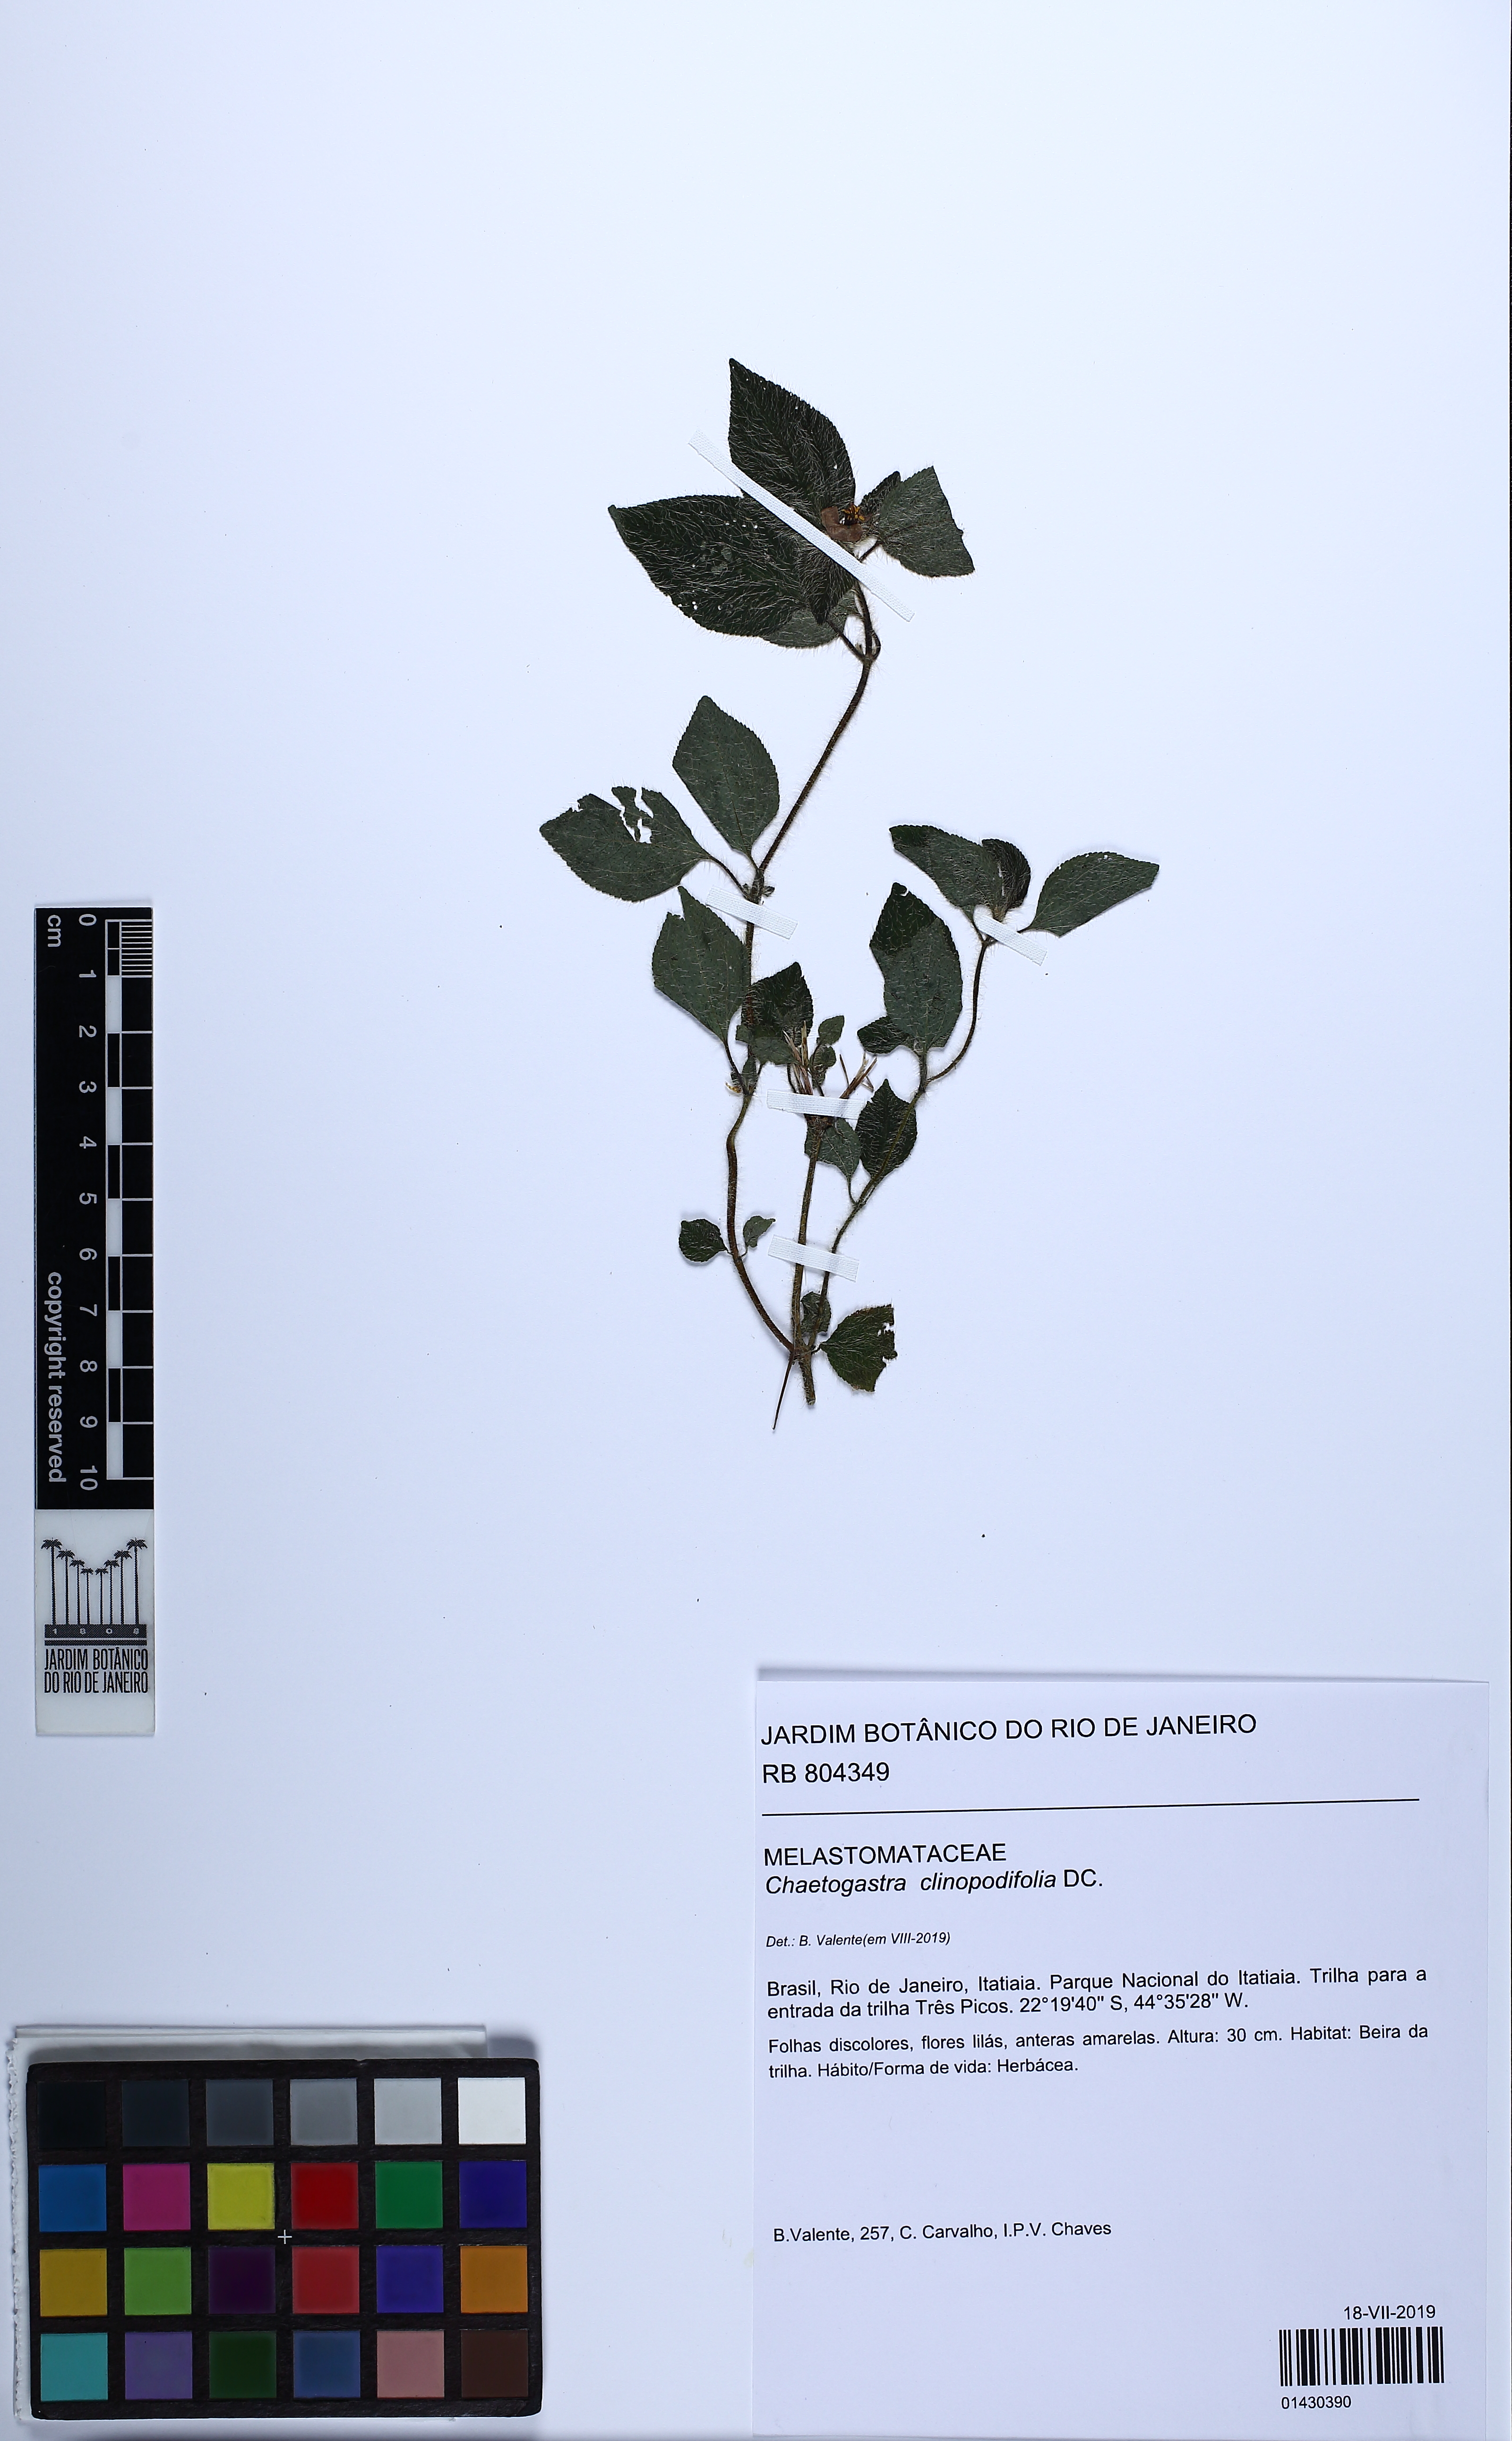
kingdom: Plantae
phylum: Tracheophyta
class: Magnoliopsida
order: Myrtales
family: Melastomataceae
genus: Chaetogastra
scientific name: Chaetogastra clinopodifolia
